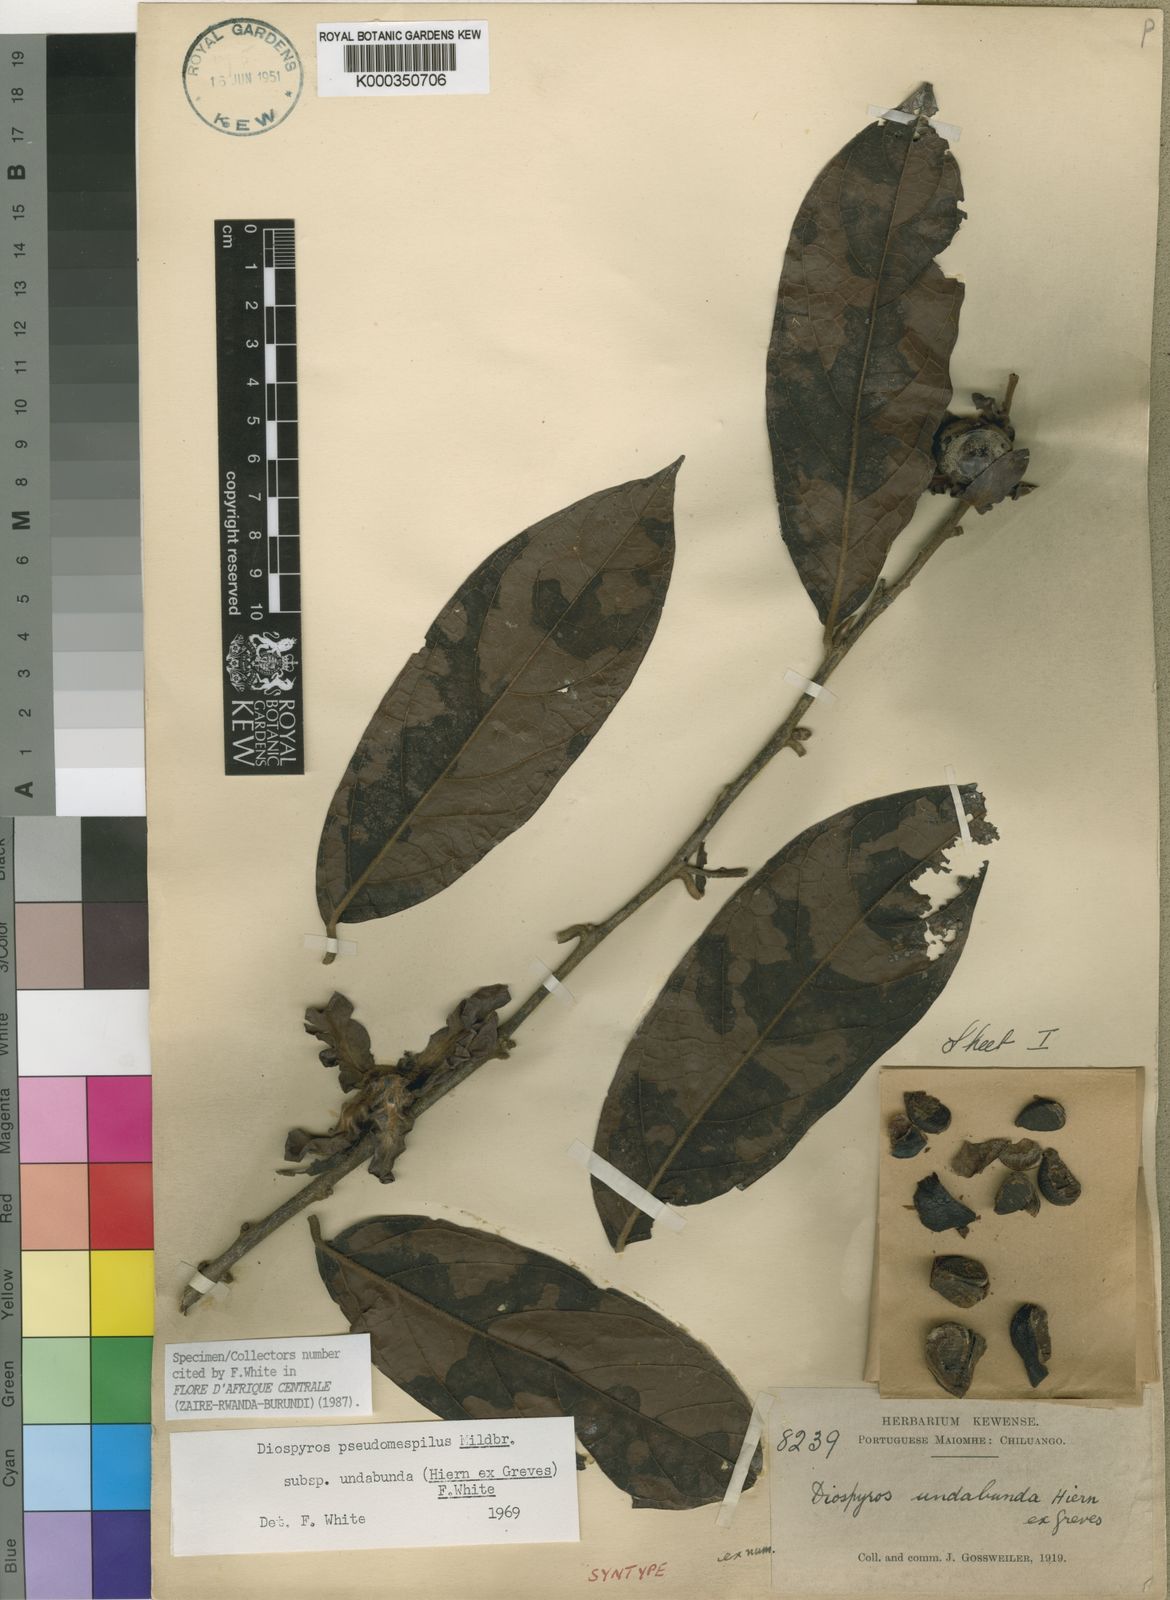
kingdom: Plantae
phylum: Tracheophyta
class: Magnoliopsida
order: Ericales
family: Ebenaceae
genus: Diospyros
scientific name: Diospyros pseudomespilus
